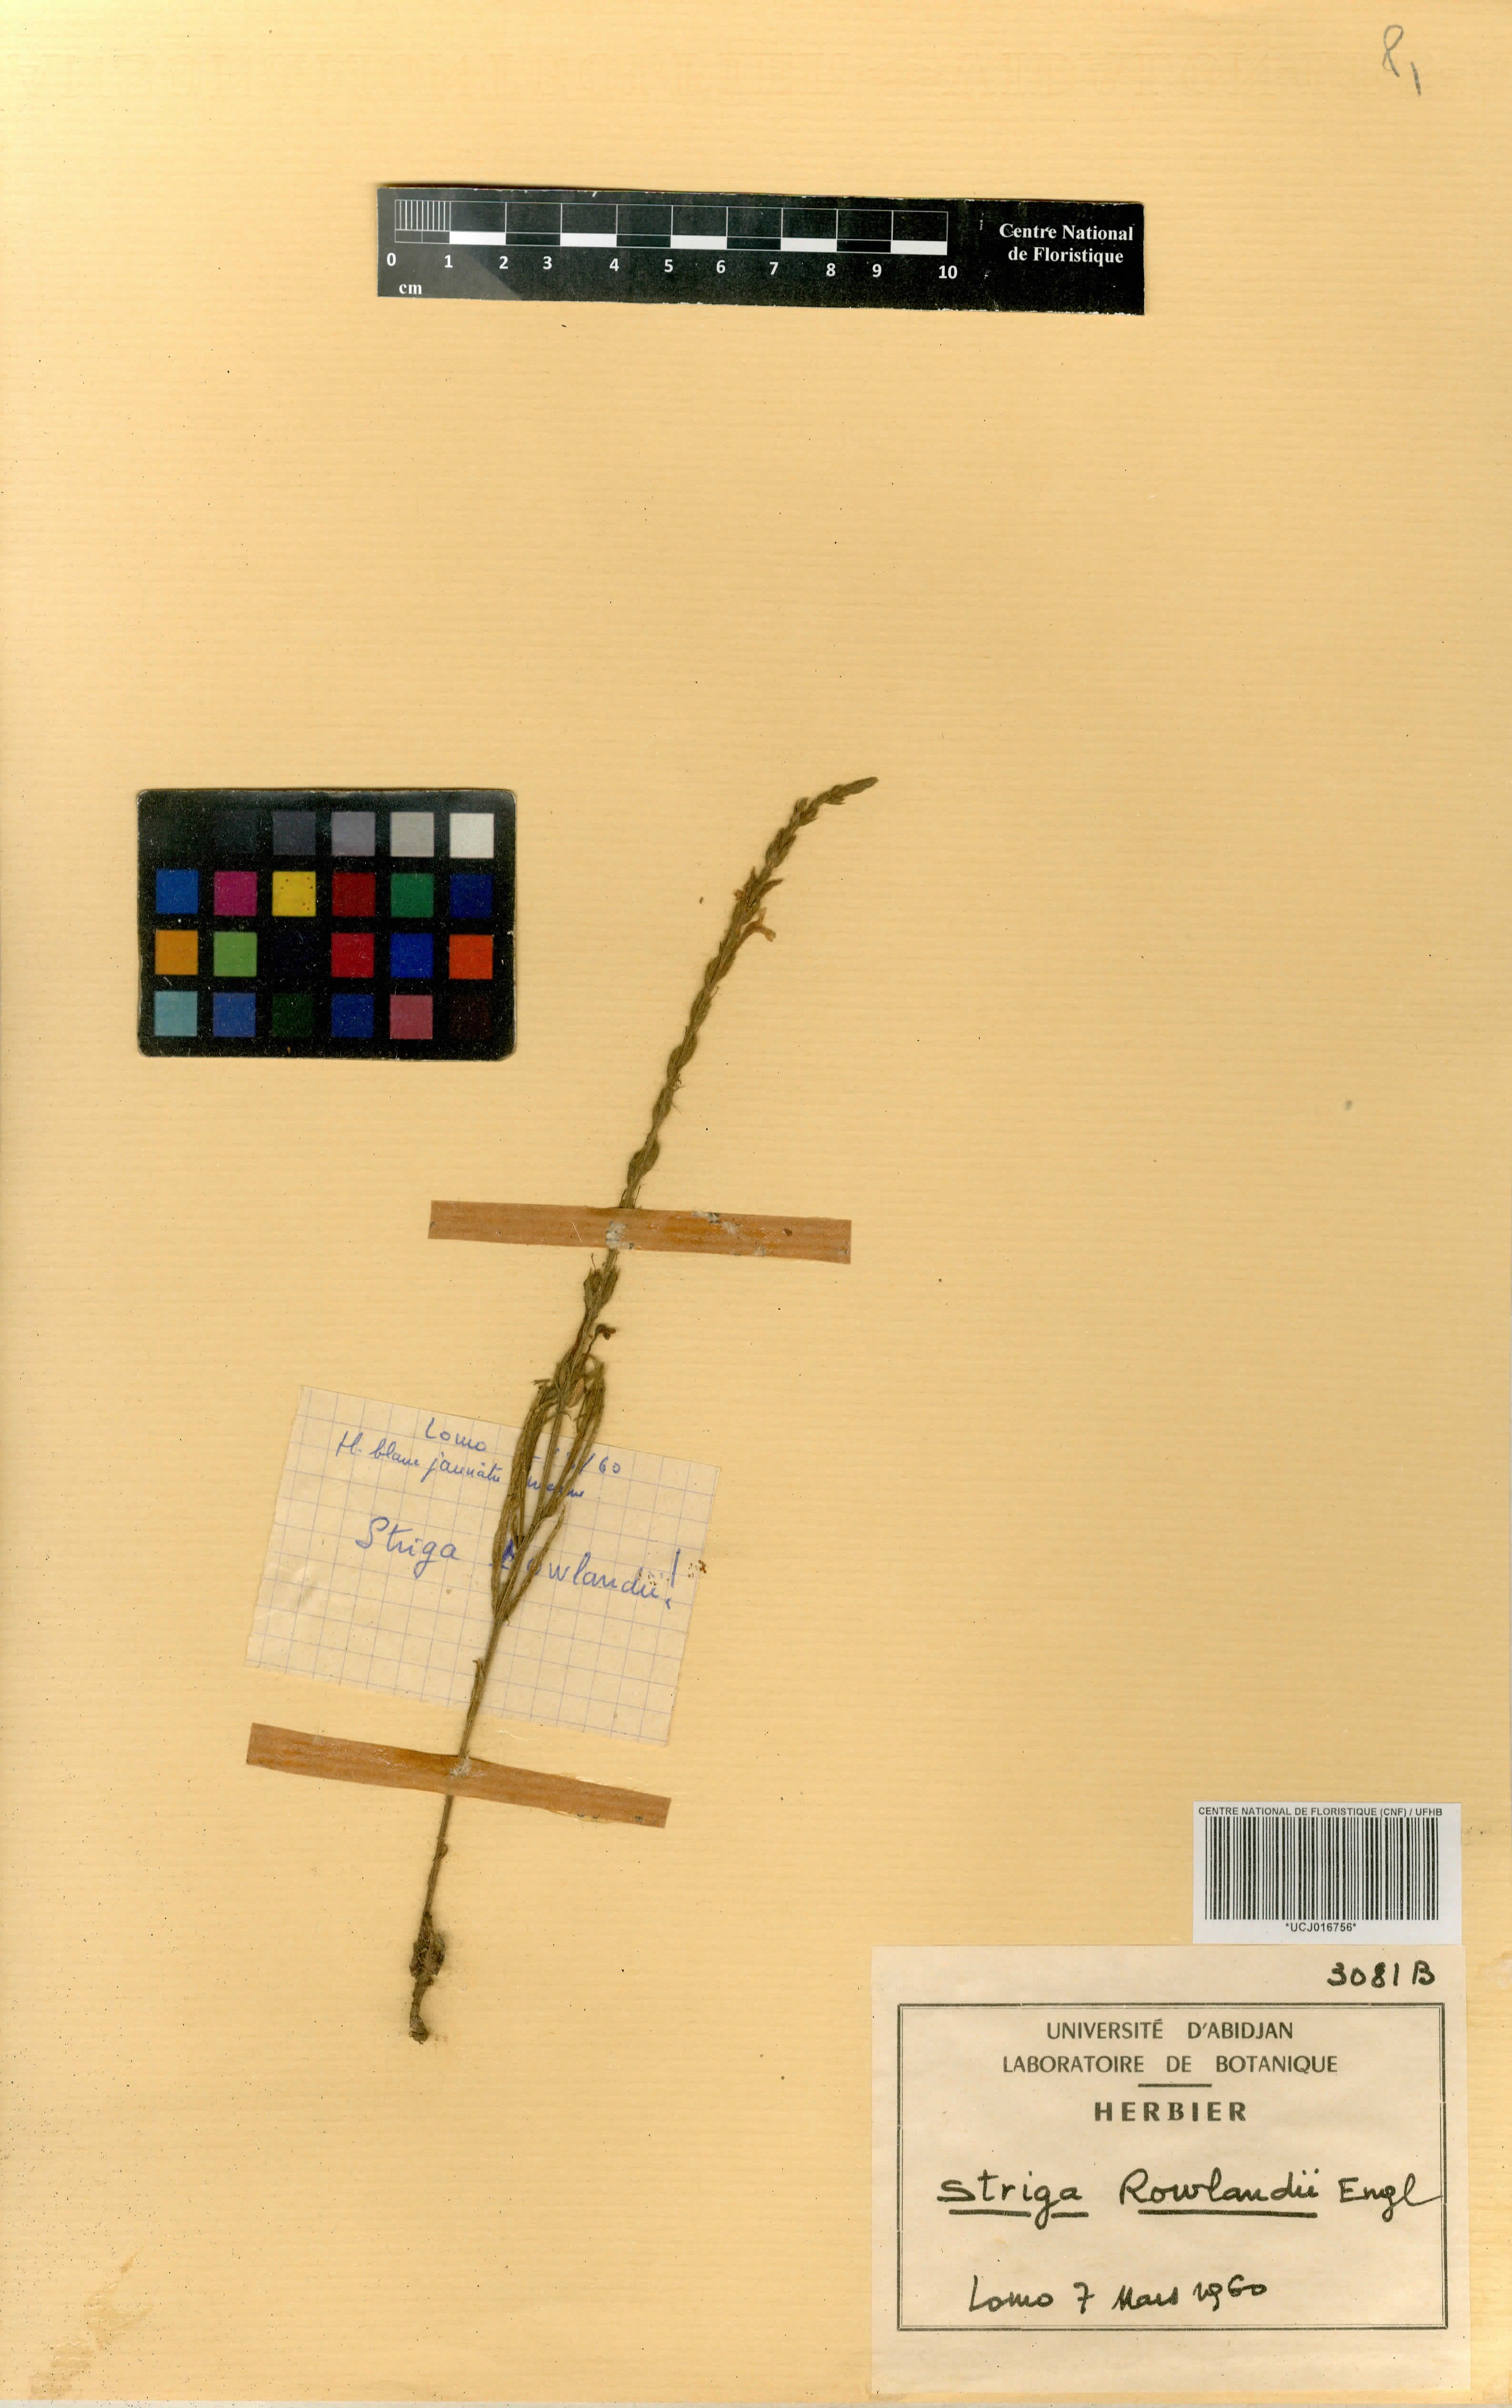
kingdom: Plantae
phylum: Tracheophyta
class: Magnoliopsida
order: Lamiales
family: Orobanchaceae
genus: Striga
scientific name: Striga bilabiata
